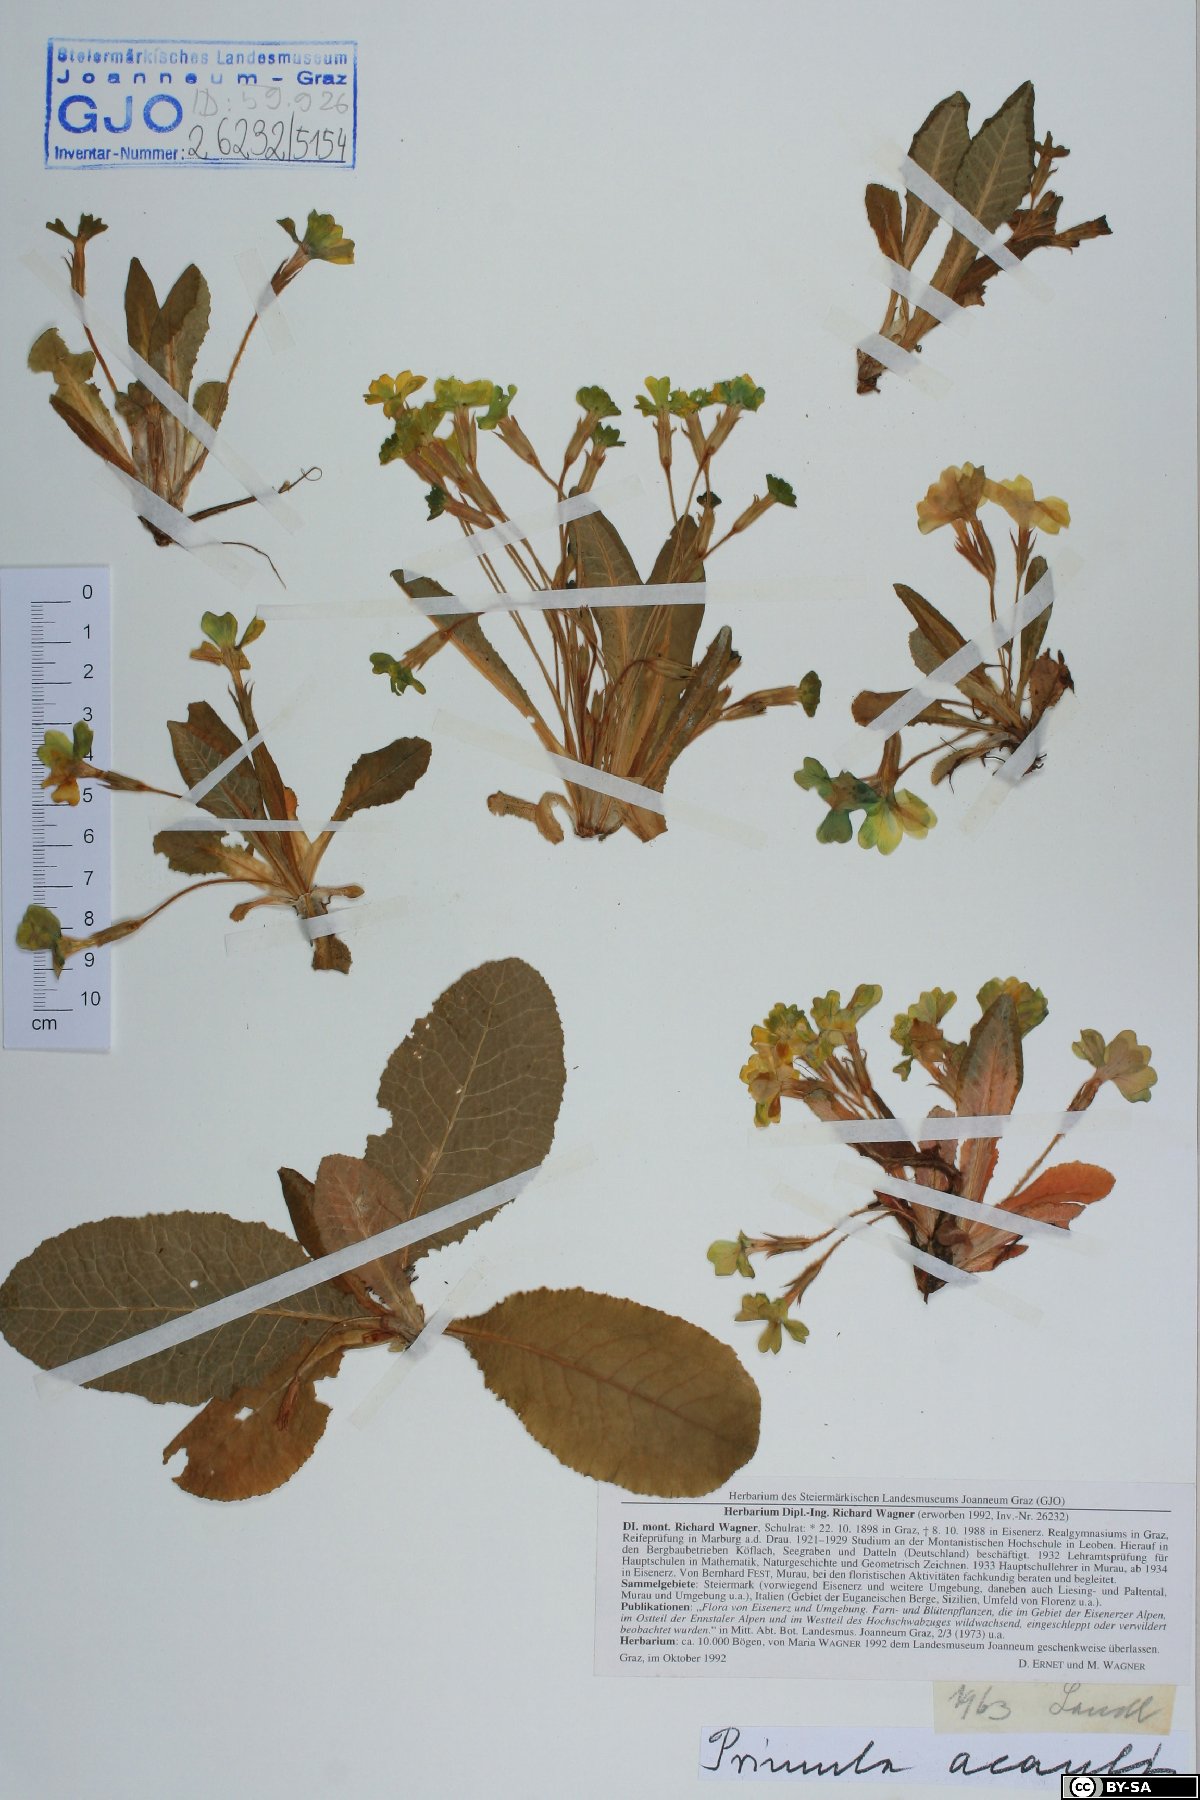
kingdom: Plantae
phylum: Tracheophyta
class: Magnoliopsida
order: Ericales
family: Primulaceae
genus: Primula
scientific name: Primula vulgaris
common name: Primrose
